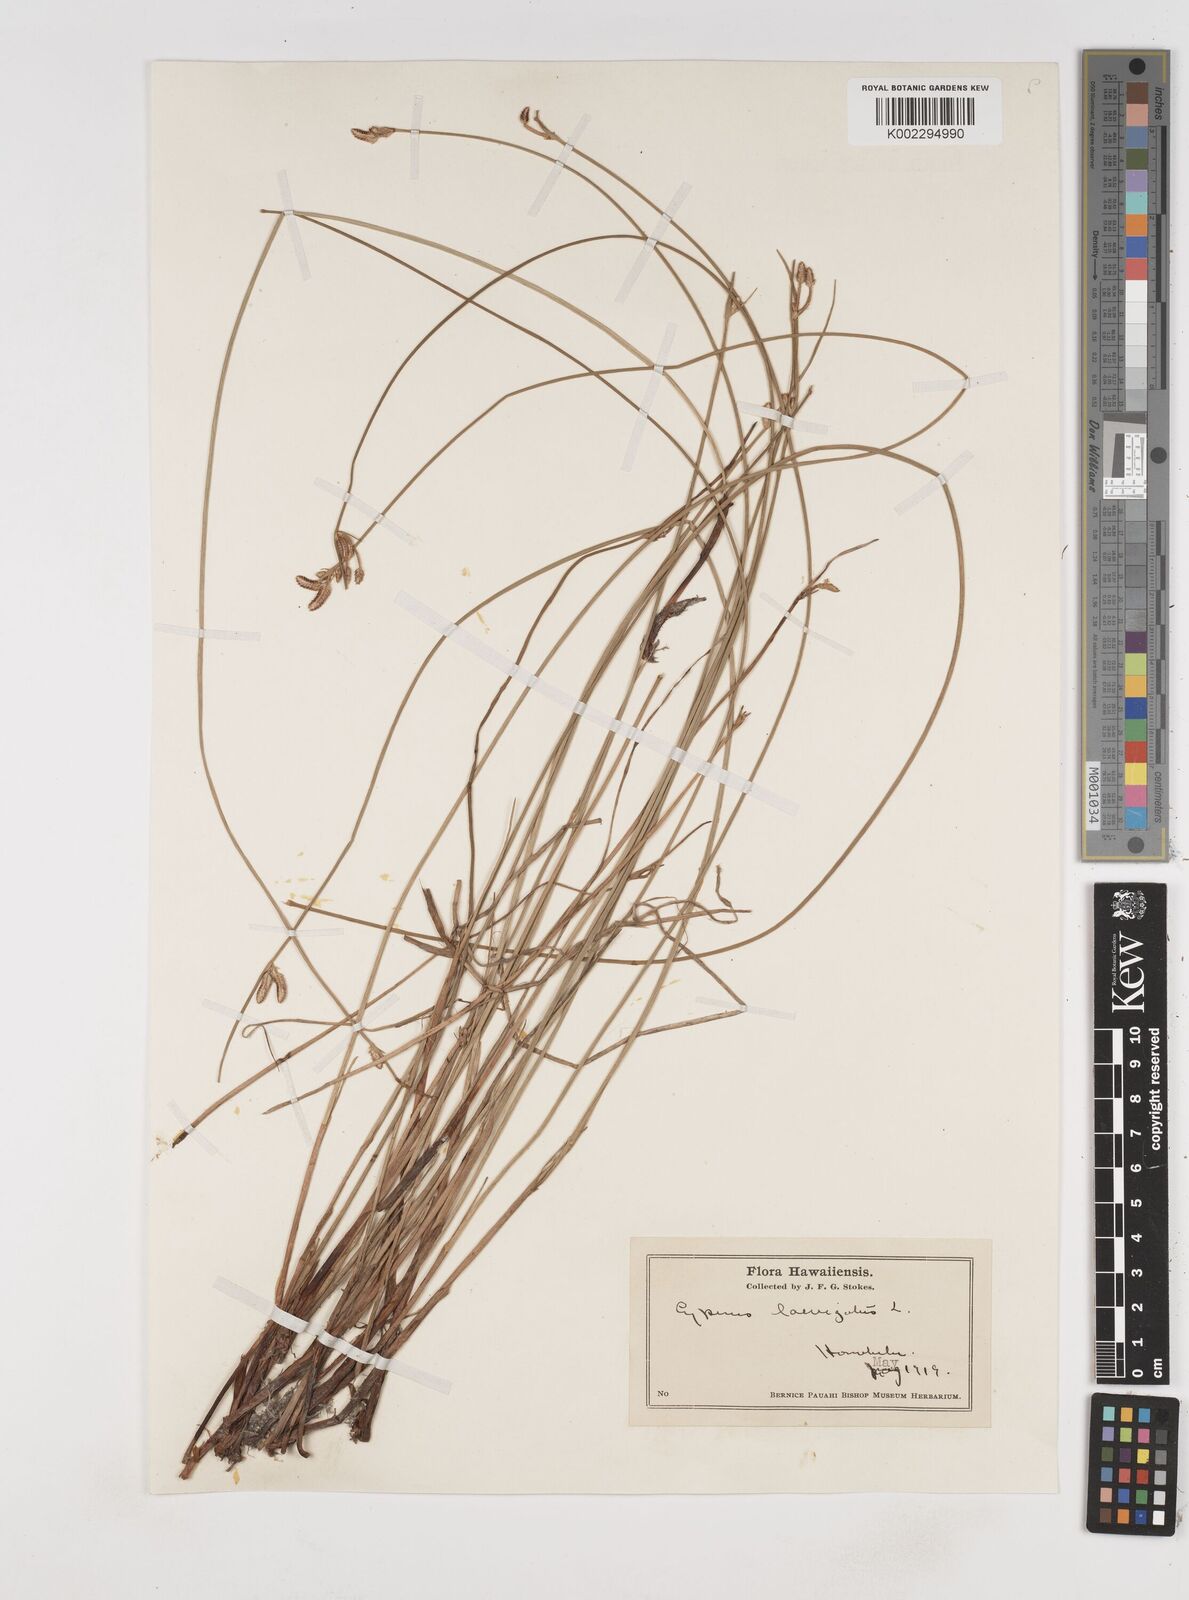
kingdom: Plantae
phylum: Tracheophyta
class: Liliopsida
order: Poales
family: Cyperaceae
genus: Cyperus
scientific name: Cyperus laevigatus
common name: Smooth flat sedge
